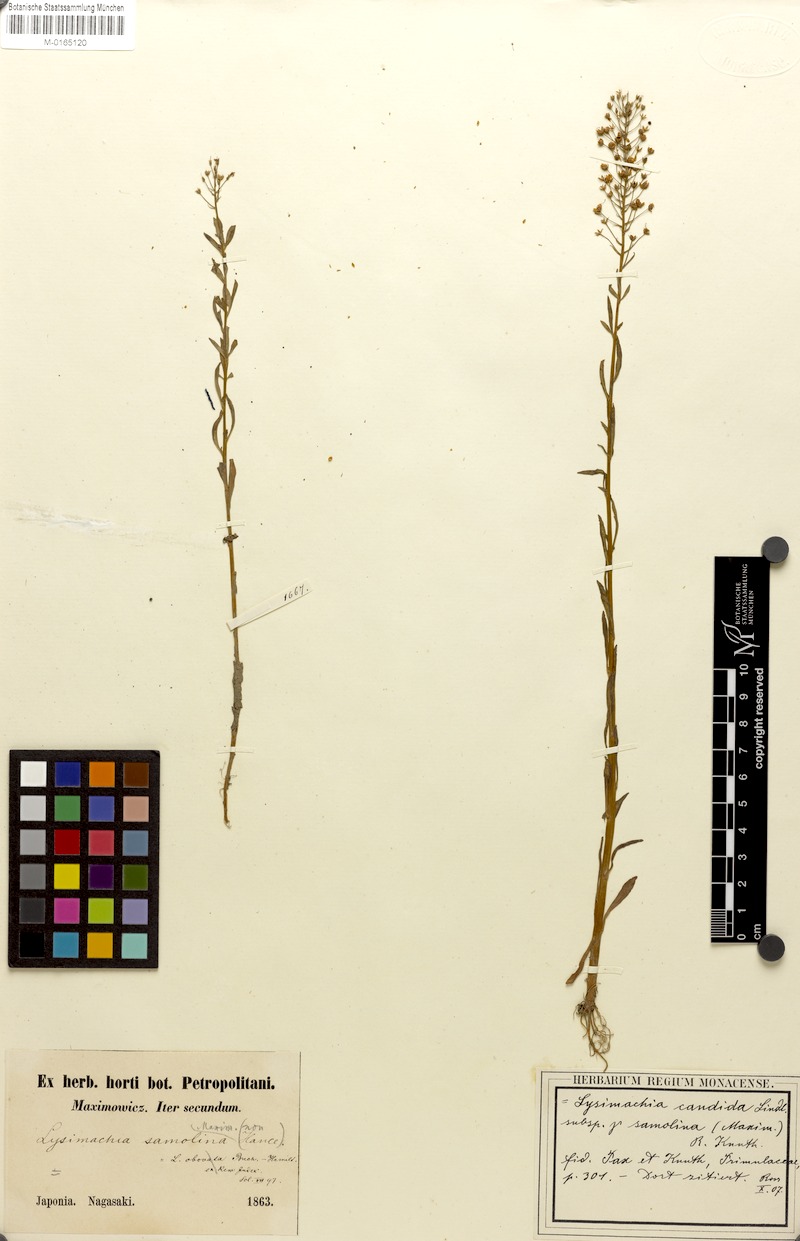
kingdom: Plantae
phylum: Tracheophyta
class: Magnoliopsida
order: Ericales
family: Primulaceae
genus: Lysimachia
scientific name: Lysimachia candida
